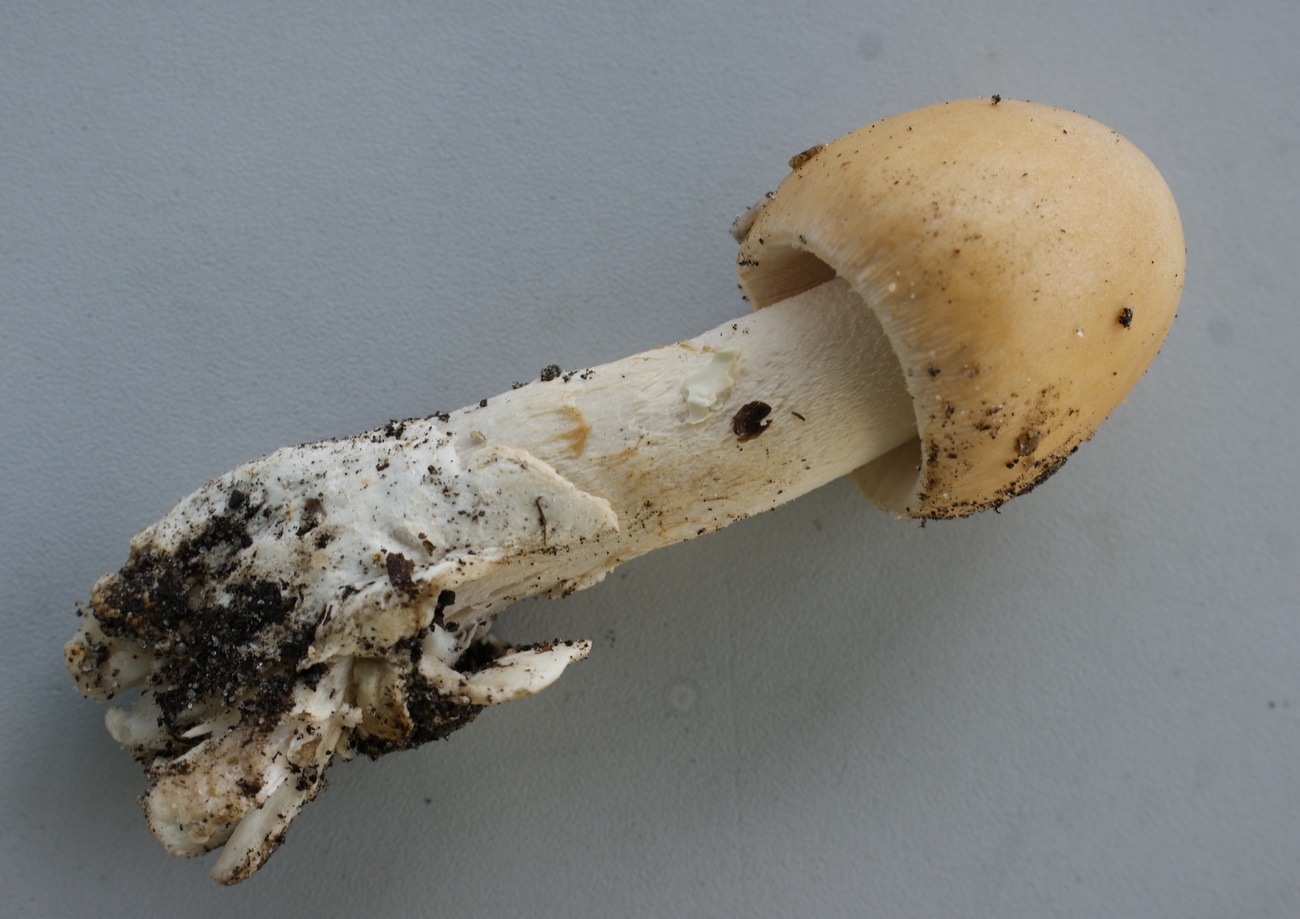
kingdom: Fungi
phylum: Basidiomycota
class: Agaricomycetes
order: Agaricales
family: Amanitaceae
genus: Amanita
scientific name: Amanita
